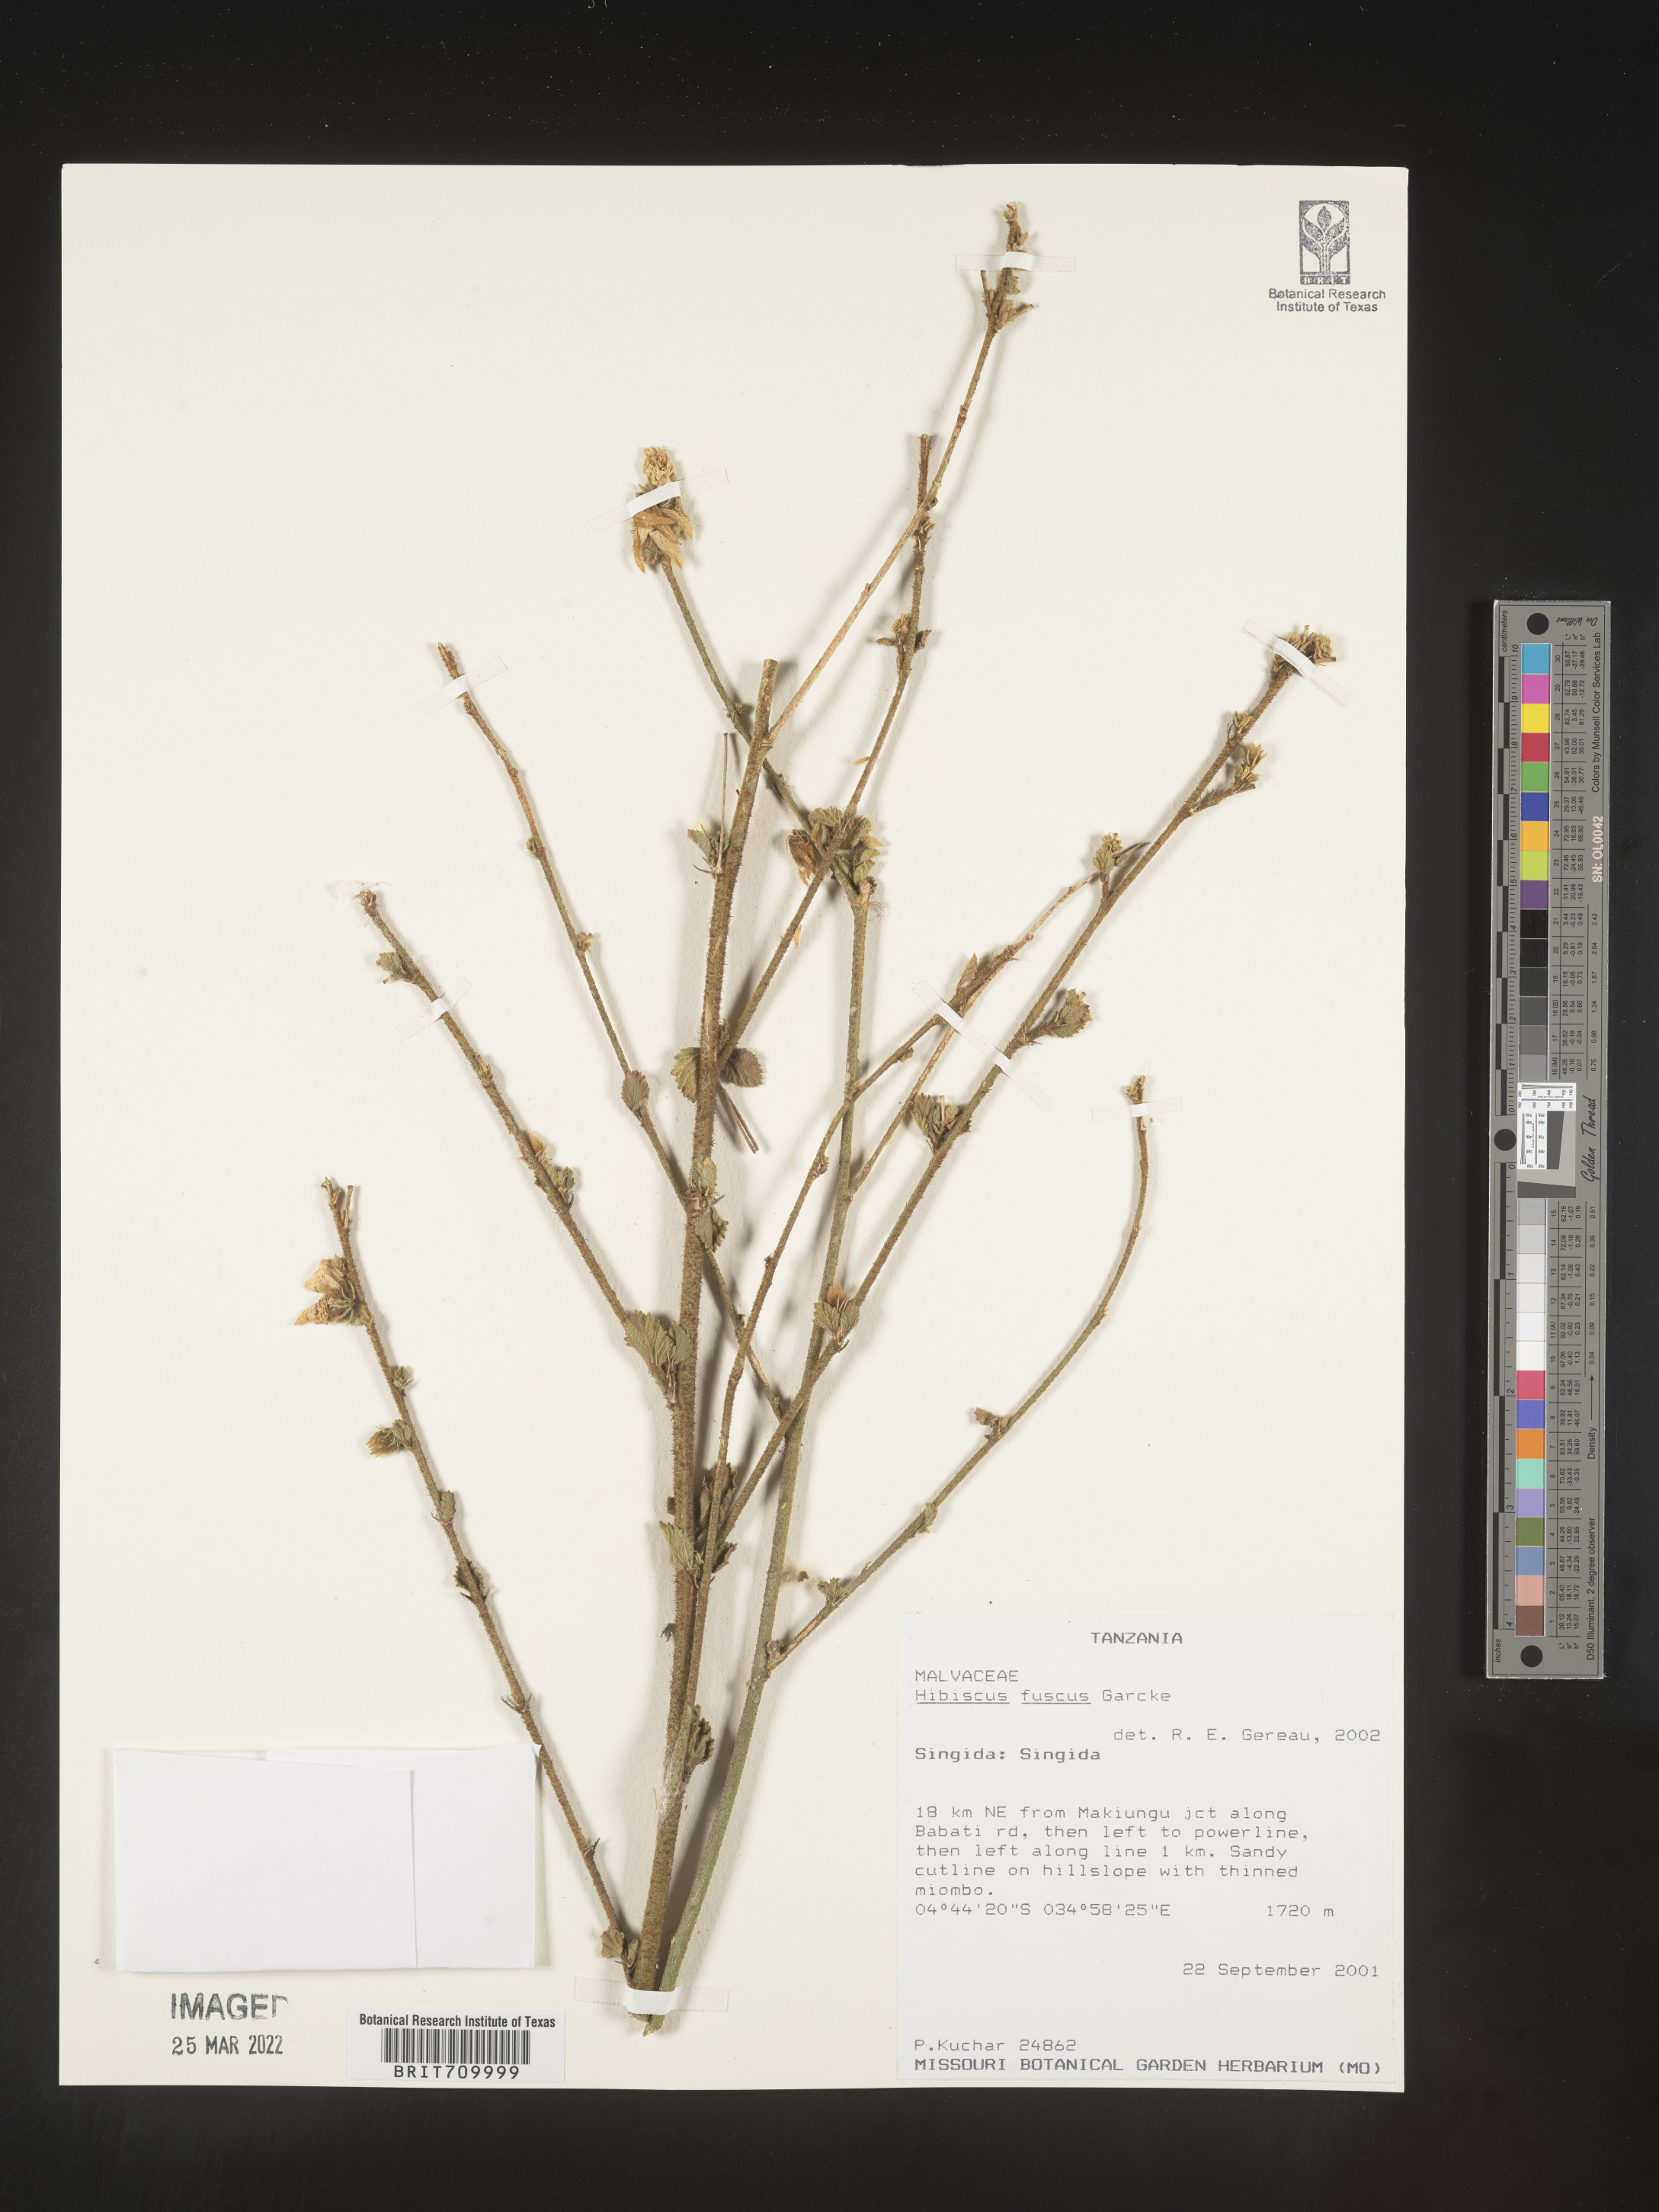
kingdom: Plantae
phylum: Tracheophyta
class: Magnoliopsida
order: Malvales
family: Malvaceae
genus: Hibiscus
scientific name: Hibiscus
